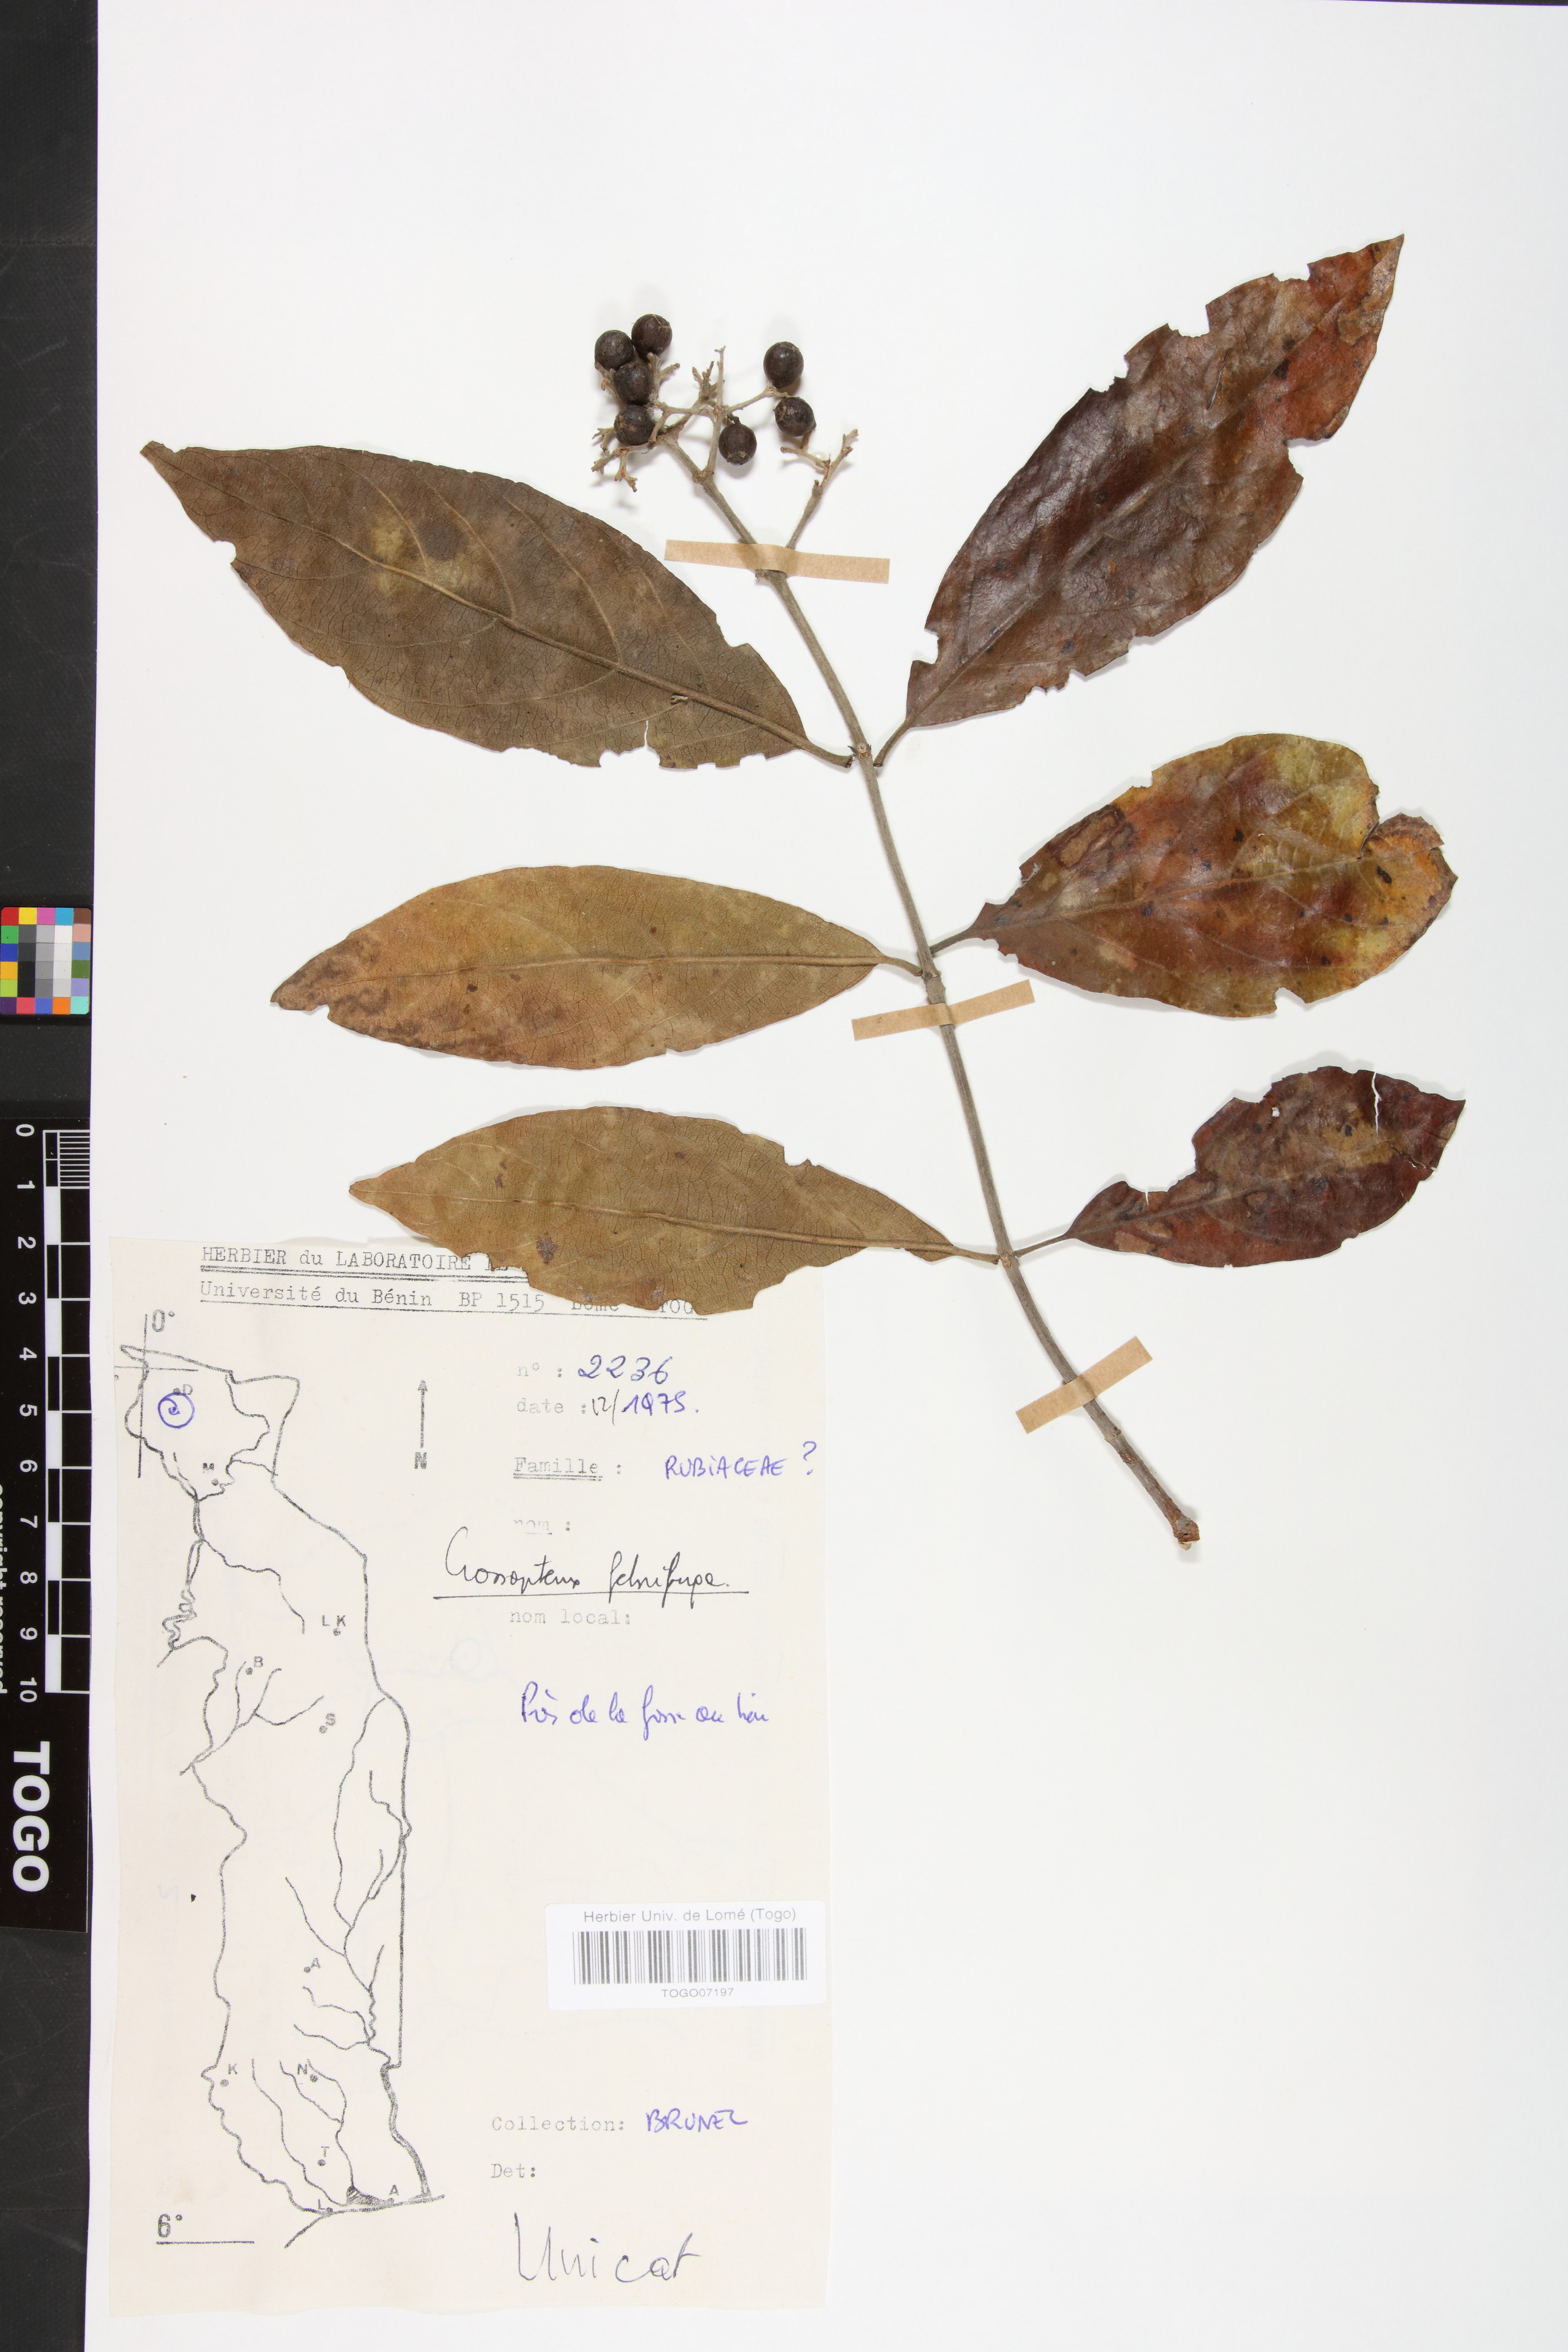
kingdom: Plantae
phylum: Tracheophyta
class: Magnoliopsida
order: Gentianales
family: Rubiaceae
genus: Crossopteryx
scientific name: Crossopteryx febrifuga
